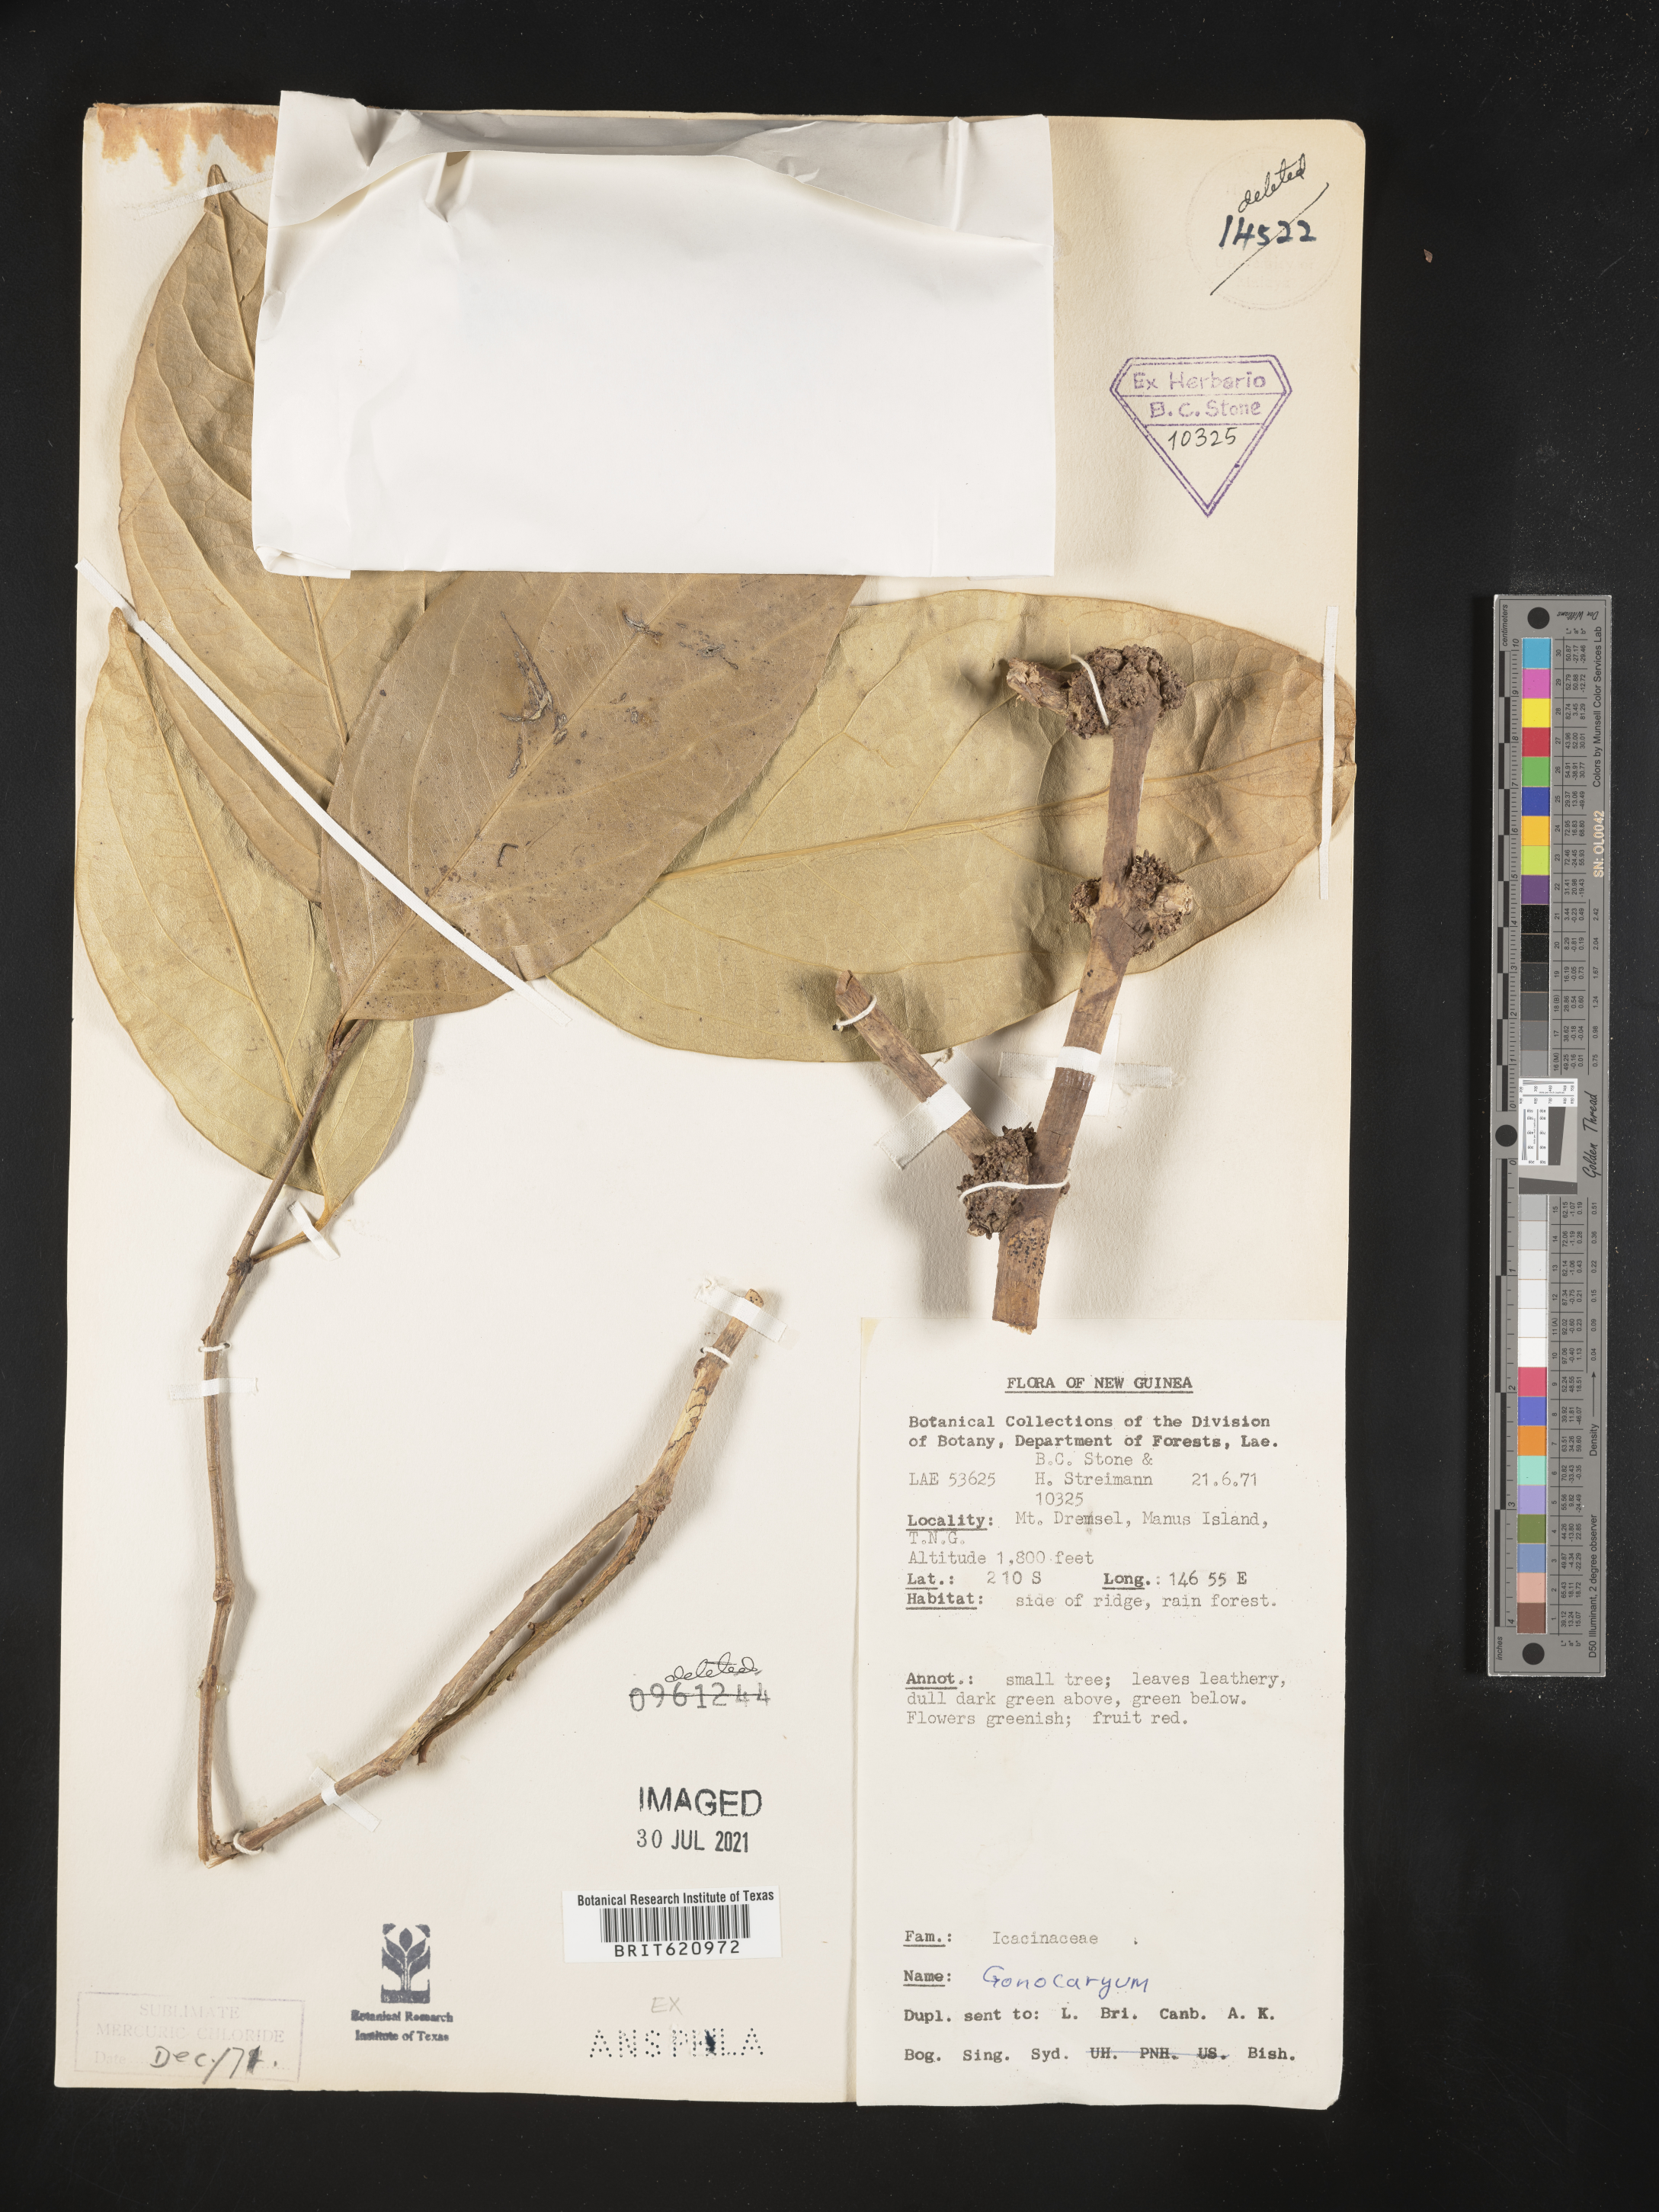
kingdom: Plantae
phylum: Tracheophyta
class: Magnoliopsida
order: Cardiopteridales
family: Cardiopteridaceae
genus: Gonocaryum
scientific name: Gonocaryum
